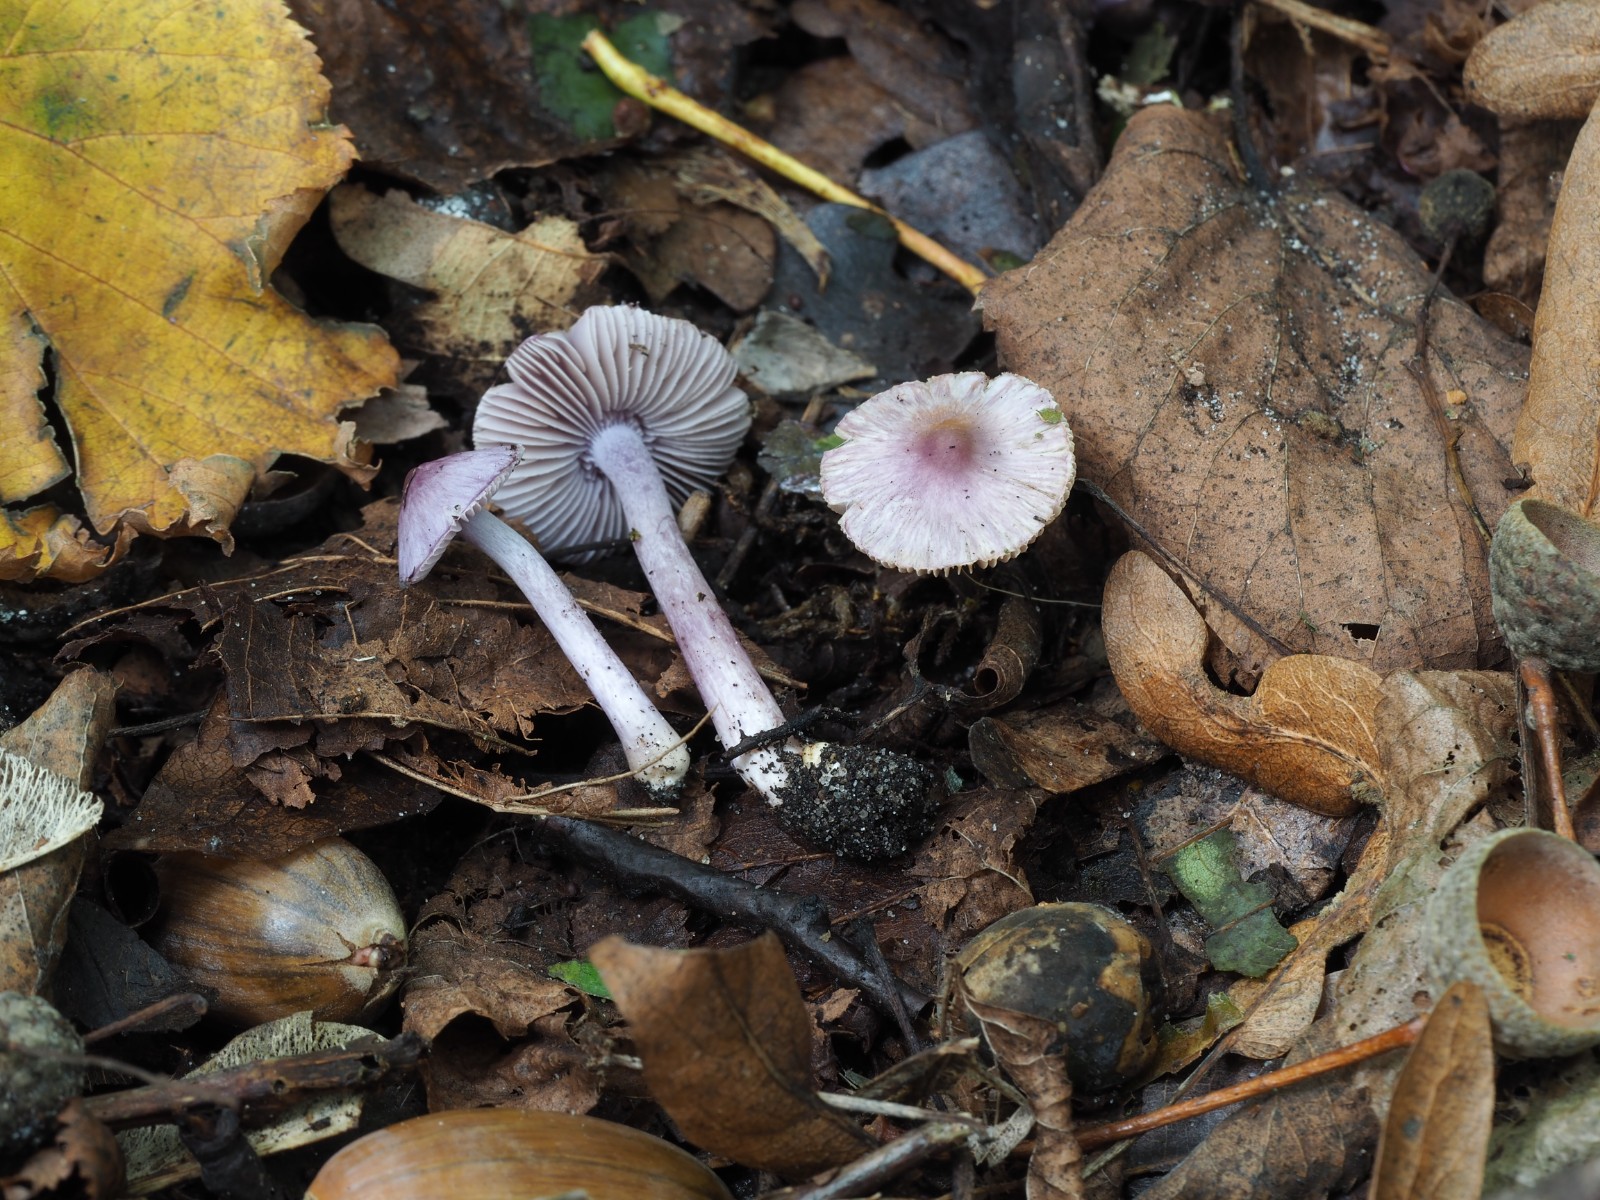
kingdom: Fungi
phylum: Basidiomycota
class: Agaricomycetes
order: Agaricales
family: Inocybaceae
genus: Inocybe
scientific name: Inocybe geophylla
